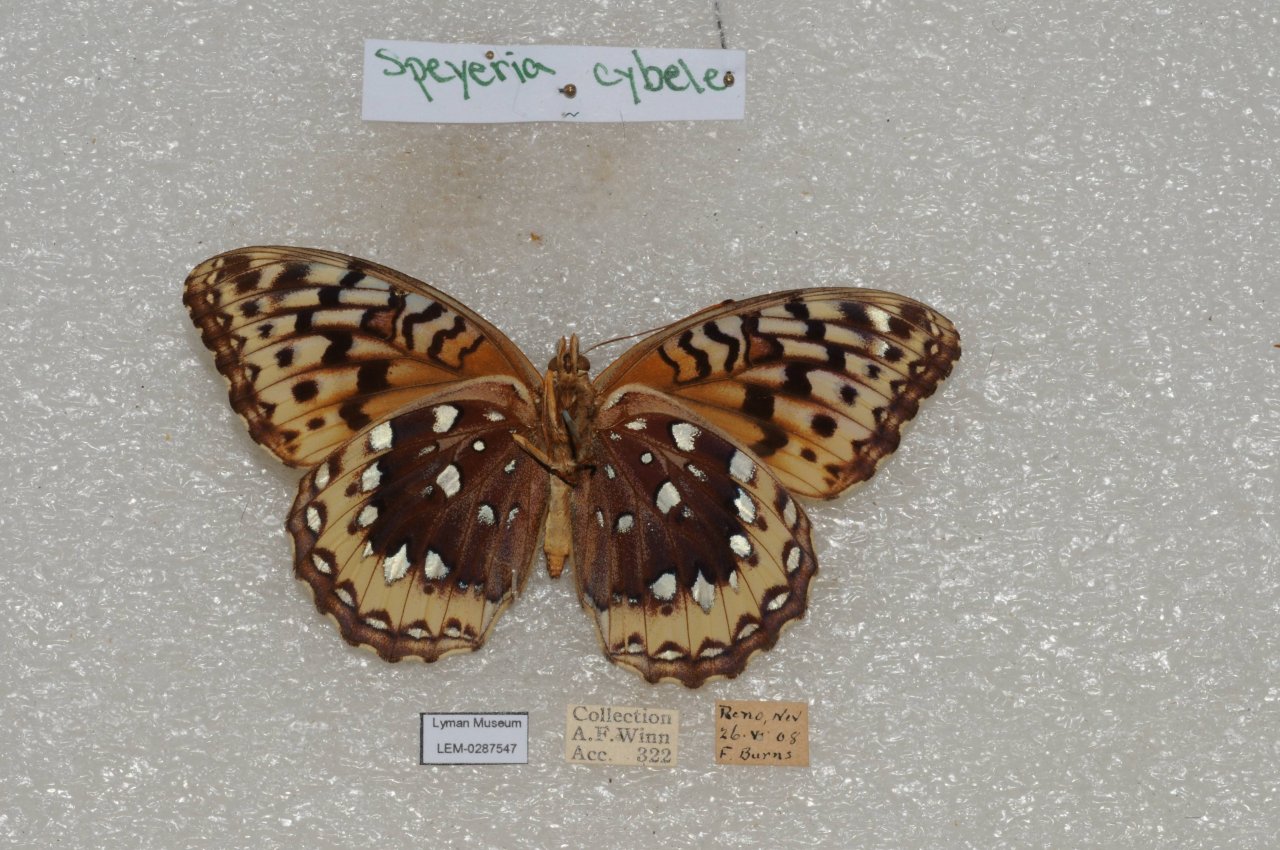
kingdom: Animalia
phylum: Arthropoda
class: Insecta
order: Lepidoptera
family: Nymphalidae
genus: Speyeria
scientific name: Speyeria cybele
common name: Great Spangled Fritillary
